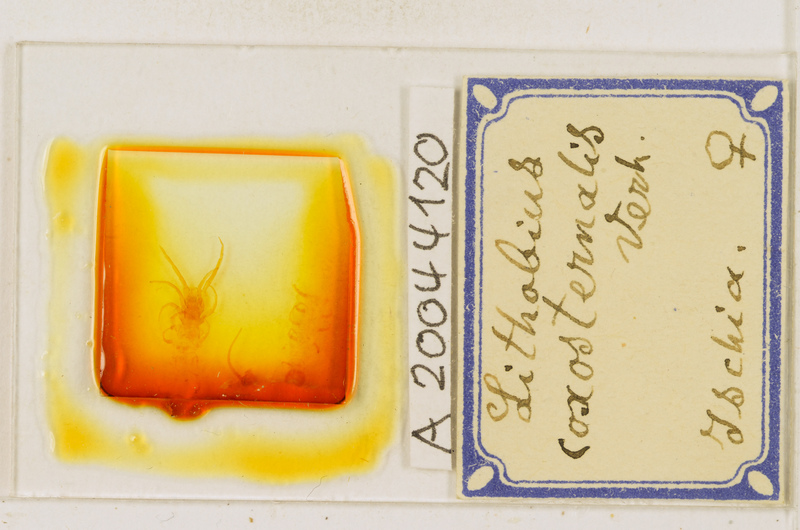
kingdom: Animalia
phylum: Arthropoda
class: Chilopoda
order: Lithobiomorpha
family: Lithobiidae
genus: Lithobius
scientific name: Lithobius erythrocephalus
